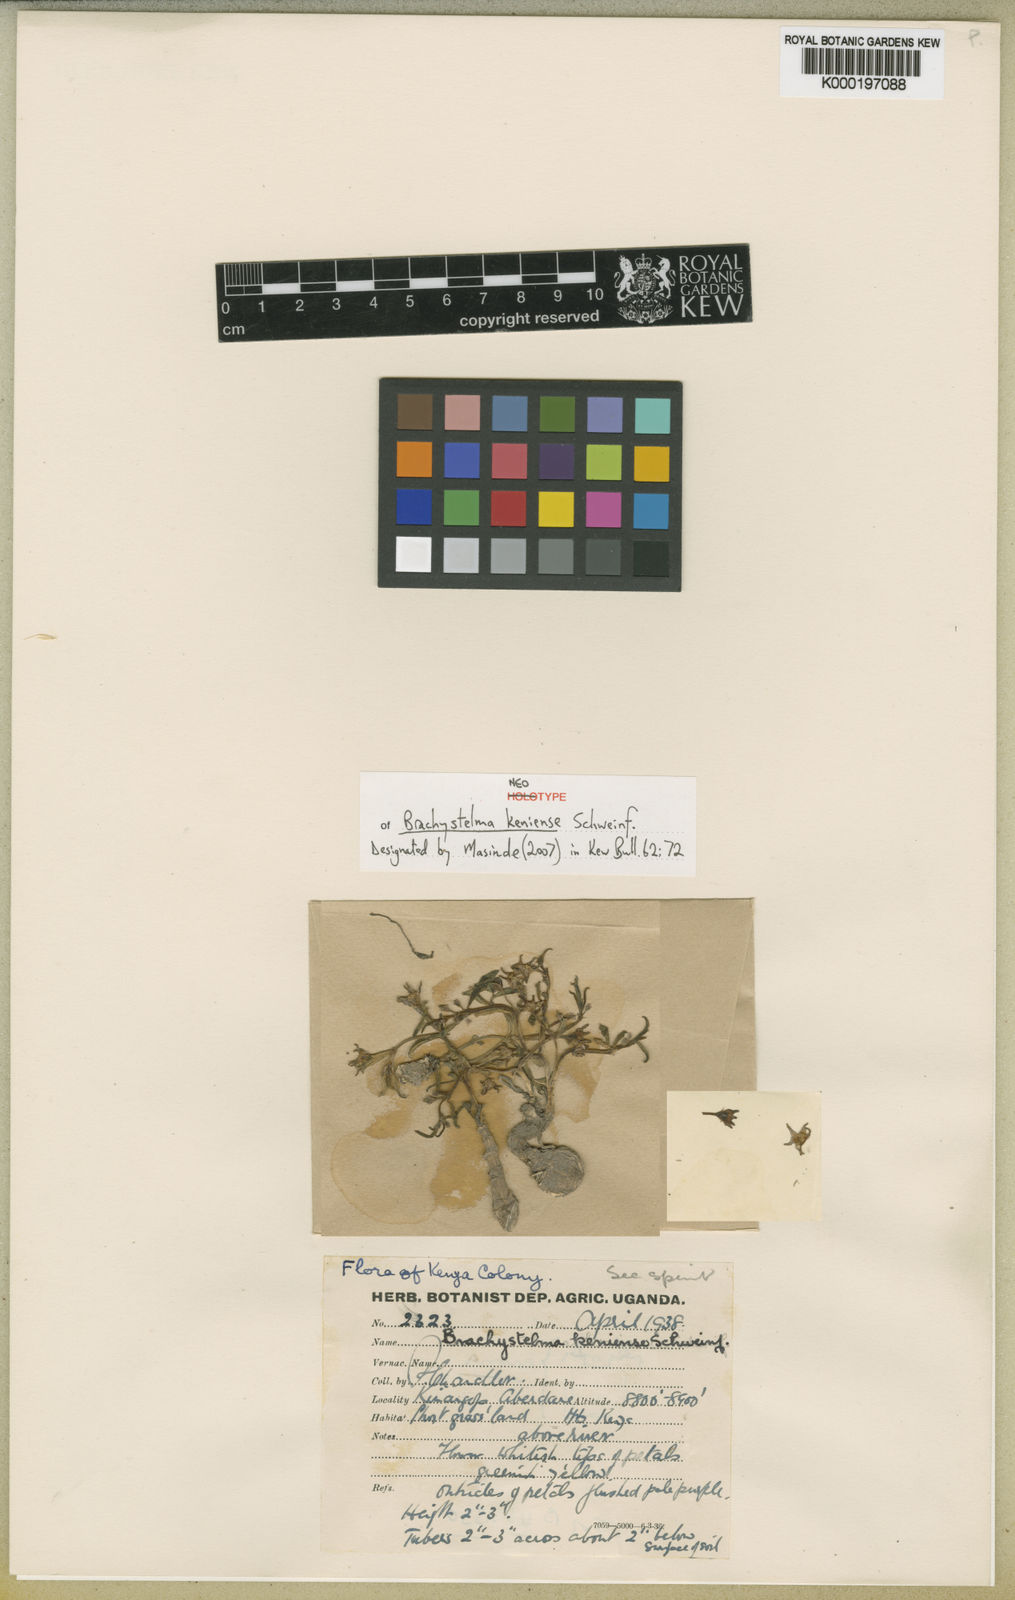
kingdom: Plantae
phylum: Tracheophyta
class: Magnoliopsida
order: Gentianales
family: Apocynaceae
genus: Ceropegia
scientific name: Ceropegia kenyana
